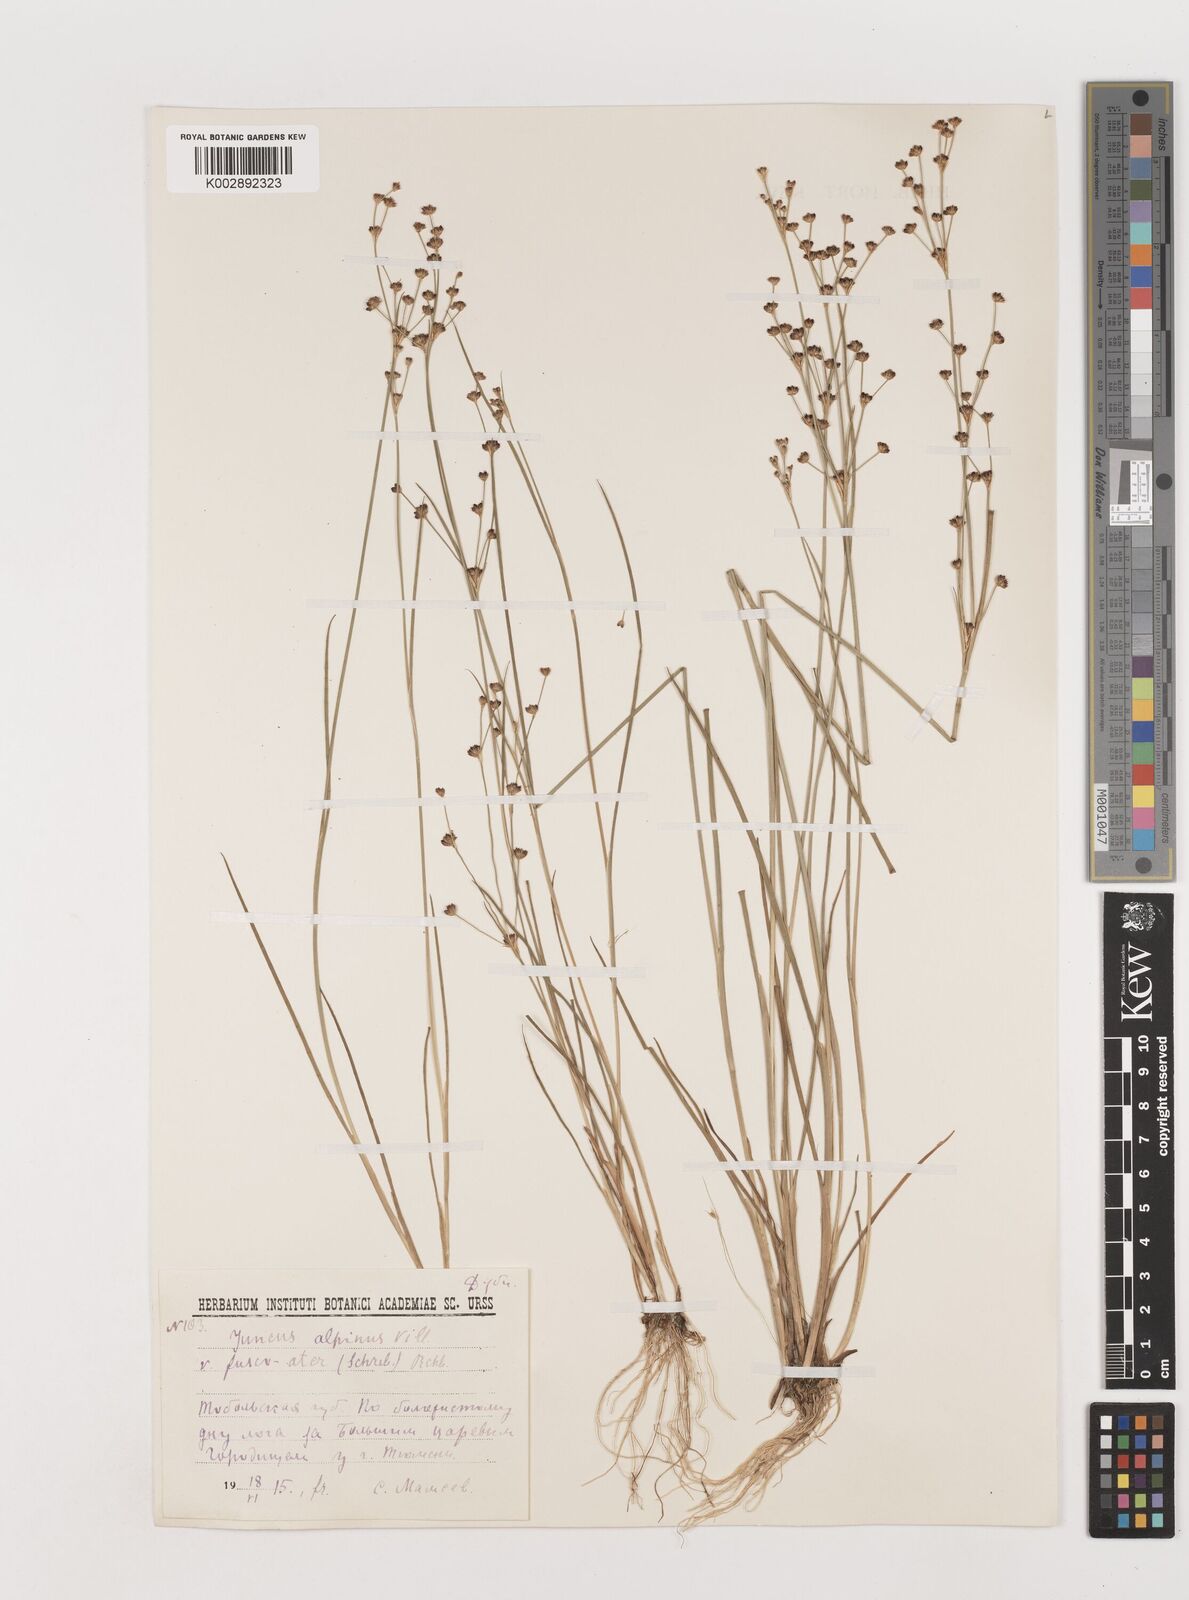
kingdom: Plantae
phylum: Tracheophyta
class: Liliopsida
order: Poales
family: Juncaceae
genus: Juncus
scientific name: Juncus alpinoarticulatus
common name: Alpine rush
